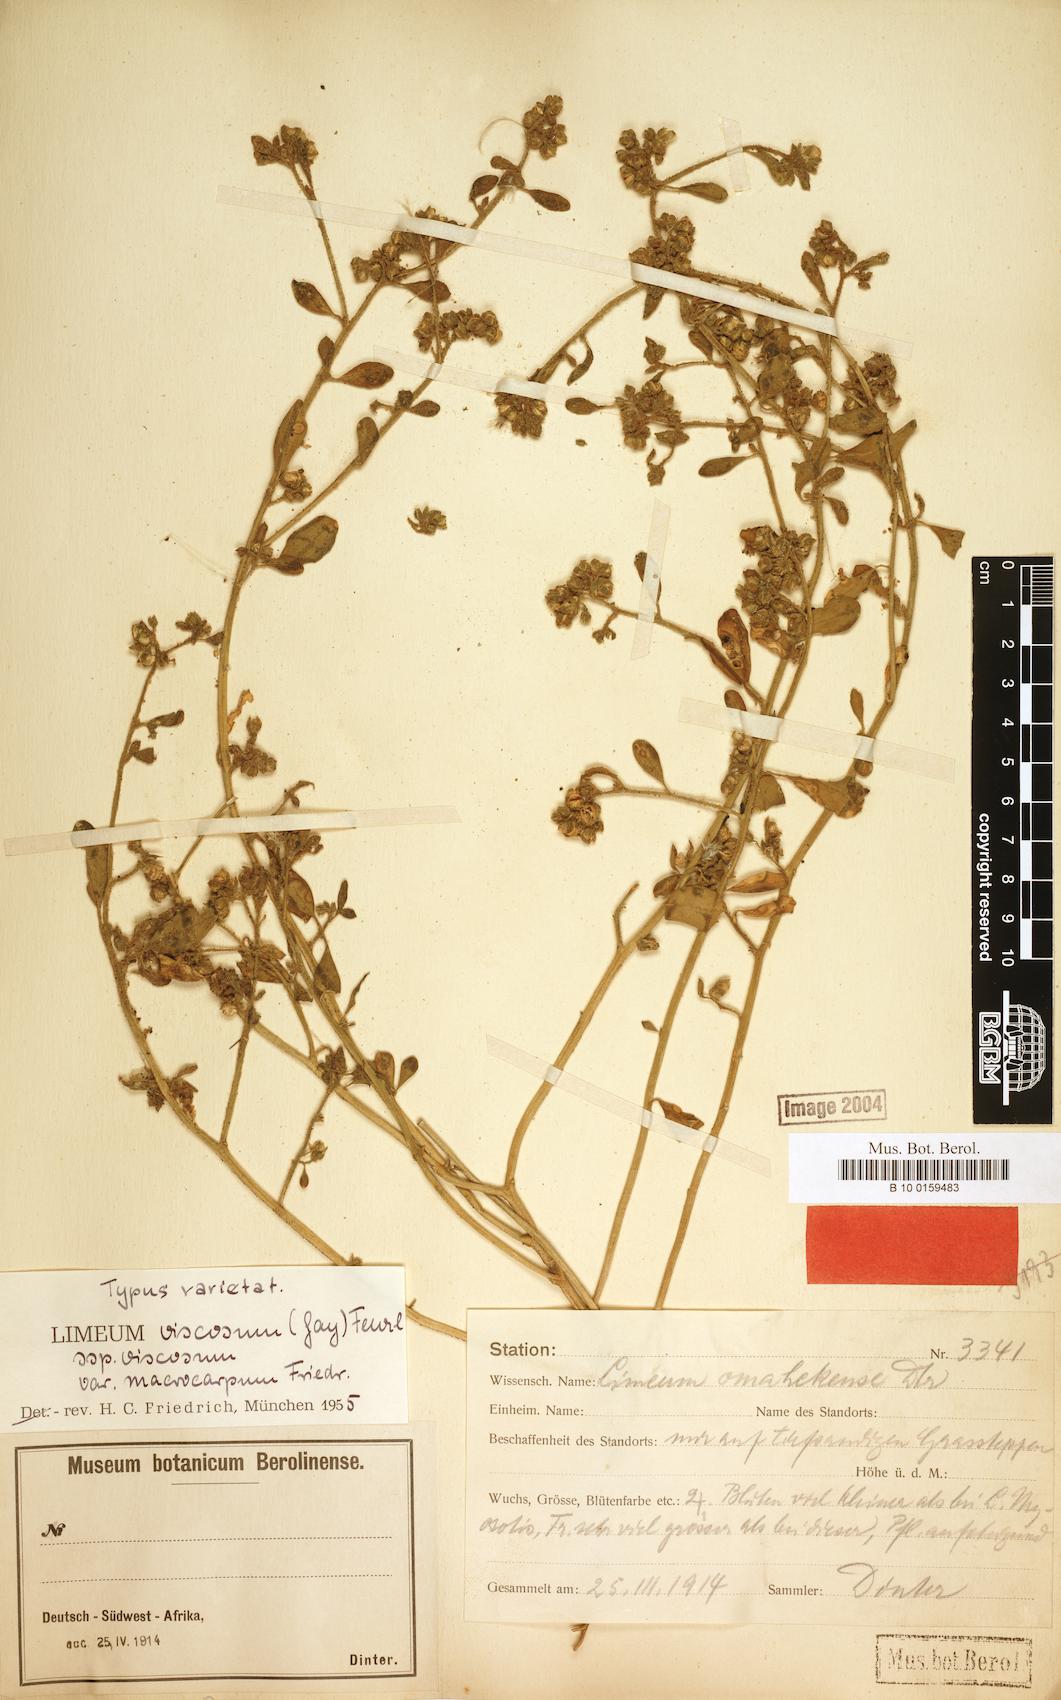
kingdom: Plantae
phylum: Tracheophyta
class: Magnoliopsida
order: Caryophyllales
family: Limeaceae
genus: Limeum
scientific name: Limeum viscosum
